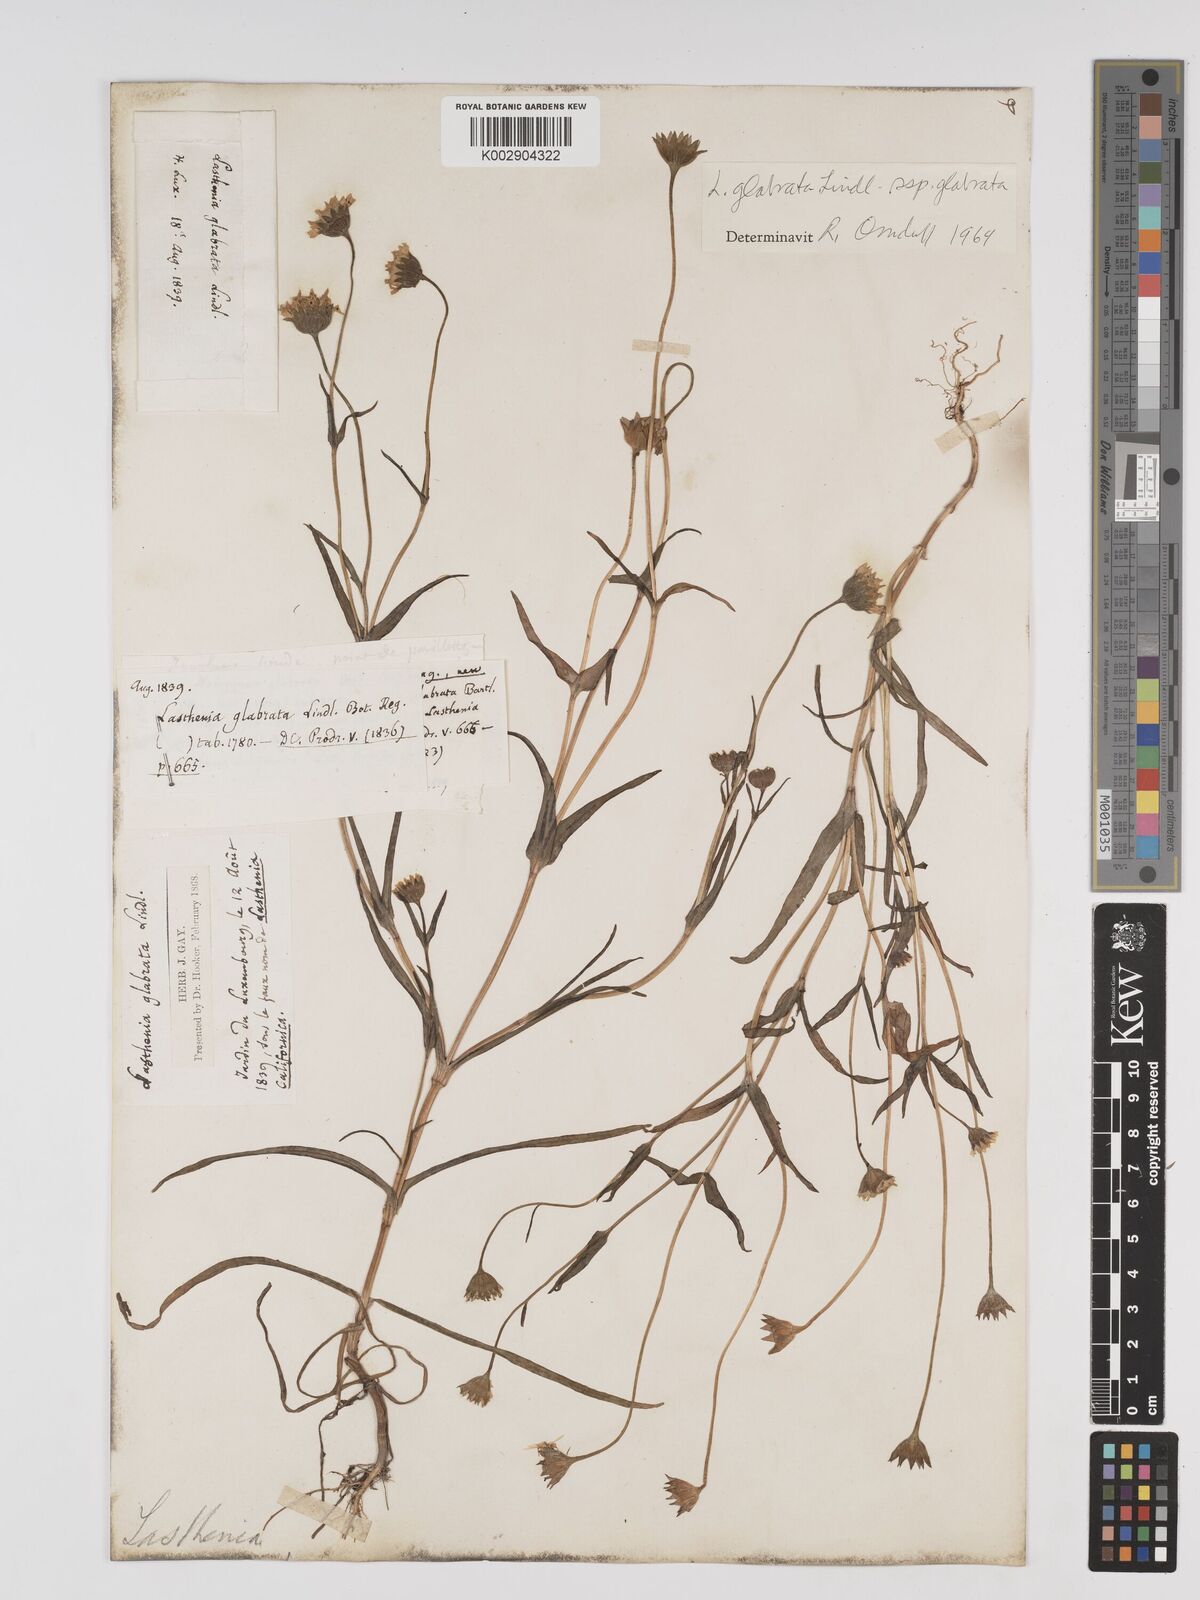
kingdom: Plantae
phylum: Tracheophyta
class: Magnoliopsida
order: Asterales
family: Asteraceae
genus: Lasthenia
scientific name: Lasthenia glabrata
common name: Yellow-ray lasthenia
